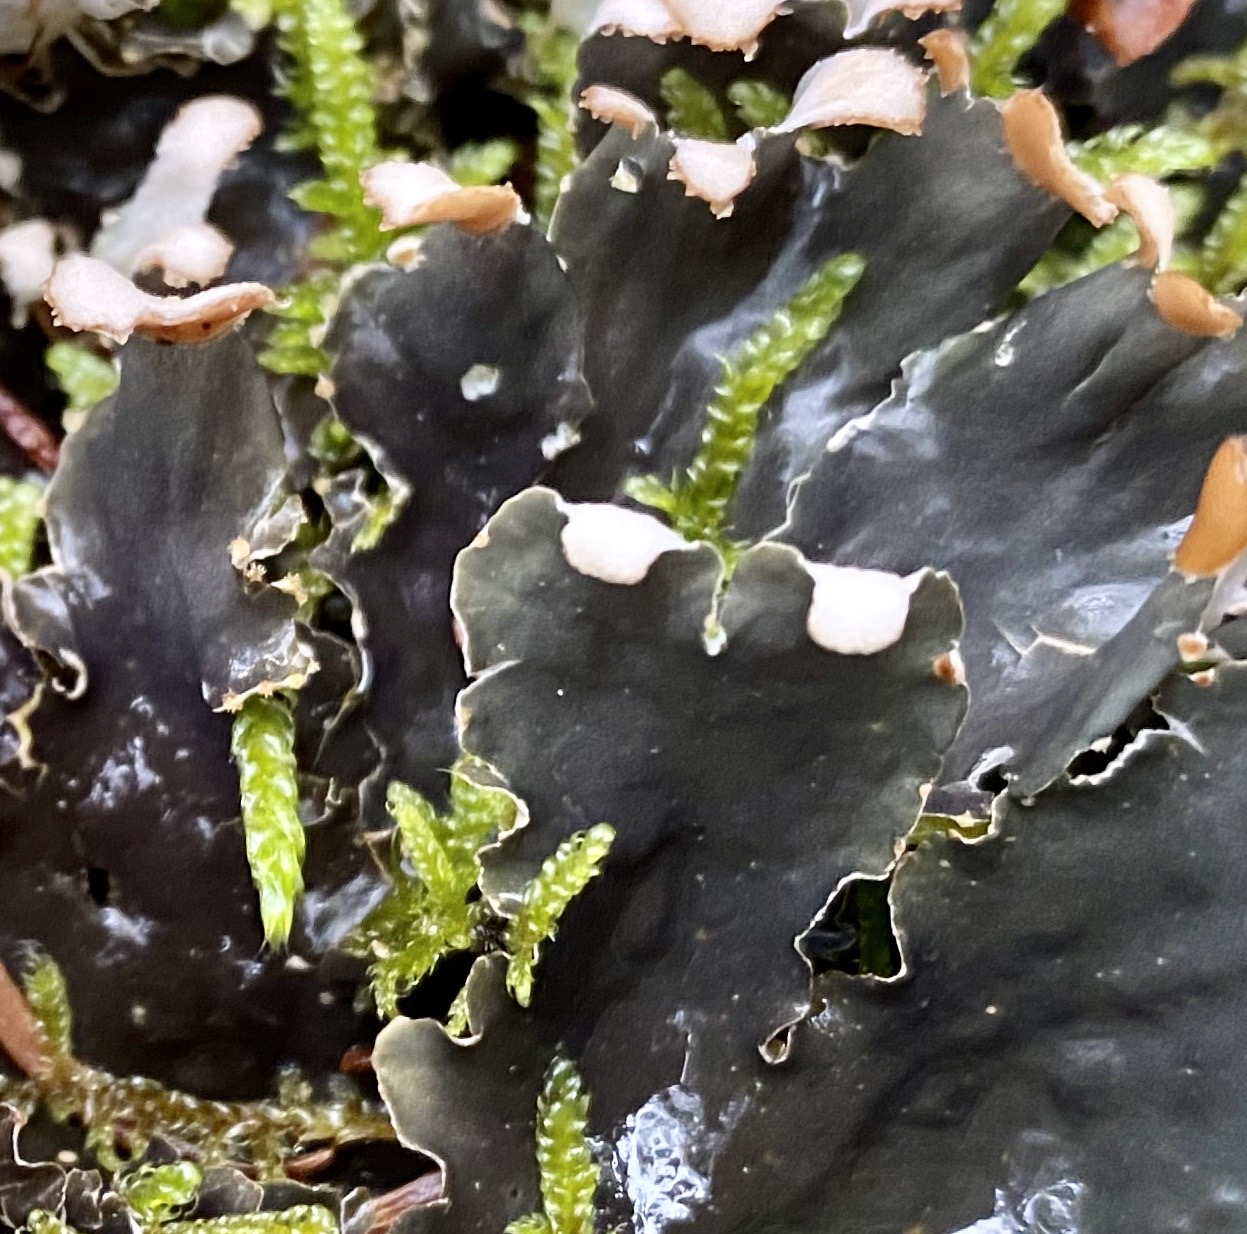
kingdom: Fungi
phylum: Ascomycota
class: Lecanoromycetes
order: Peltigerales
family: Peltigeraceae
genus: Peltigera
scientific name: Peltigera hymenina
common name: hinde-skjoldlav
